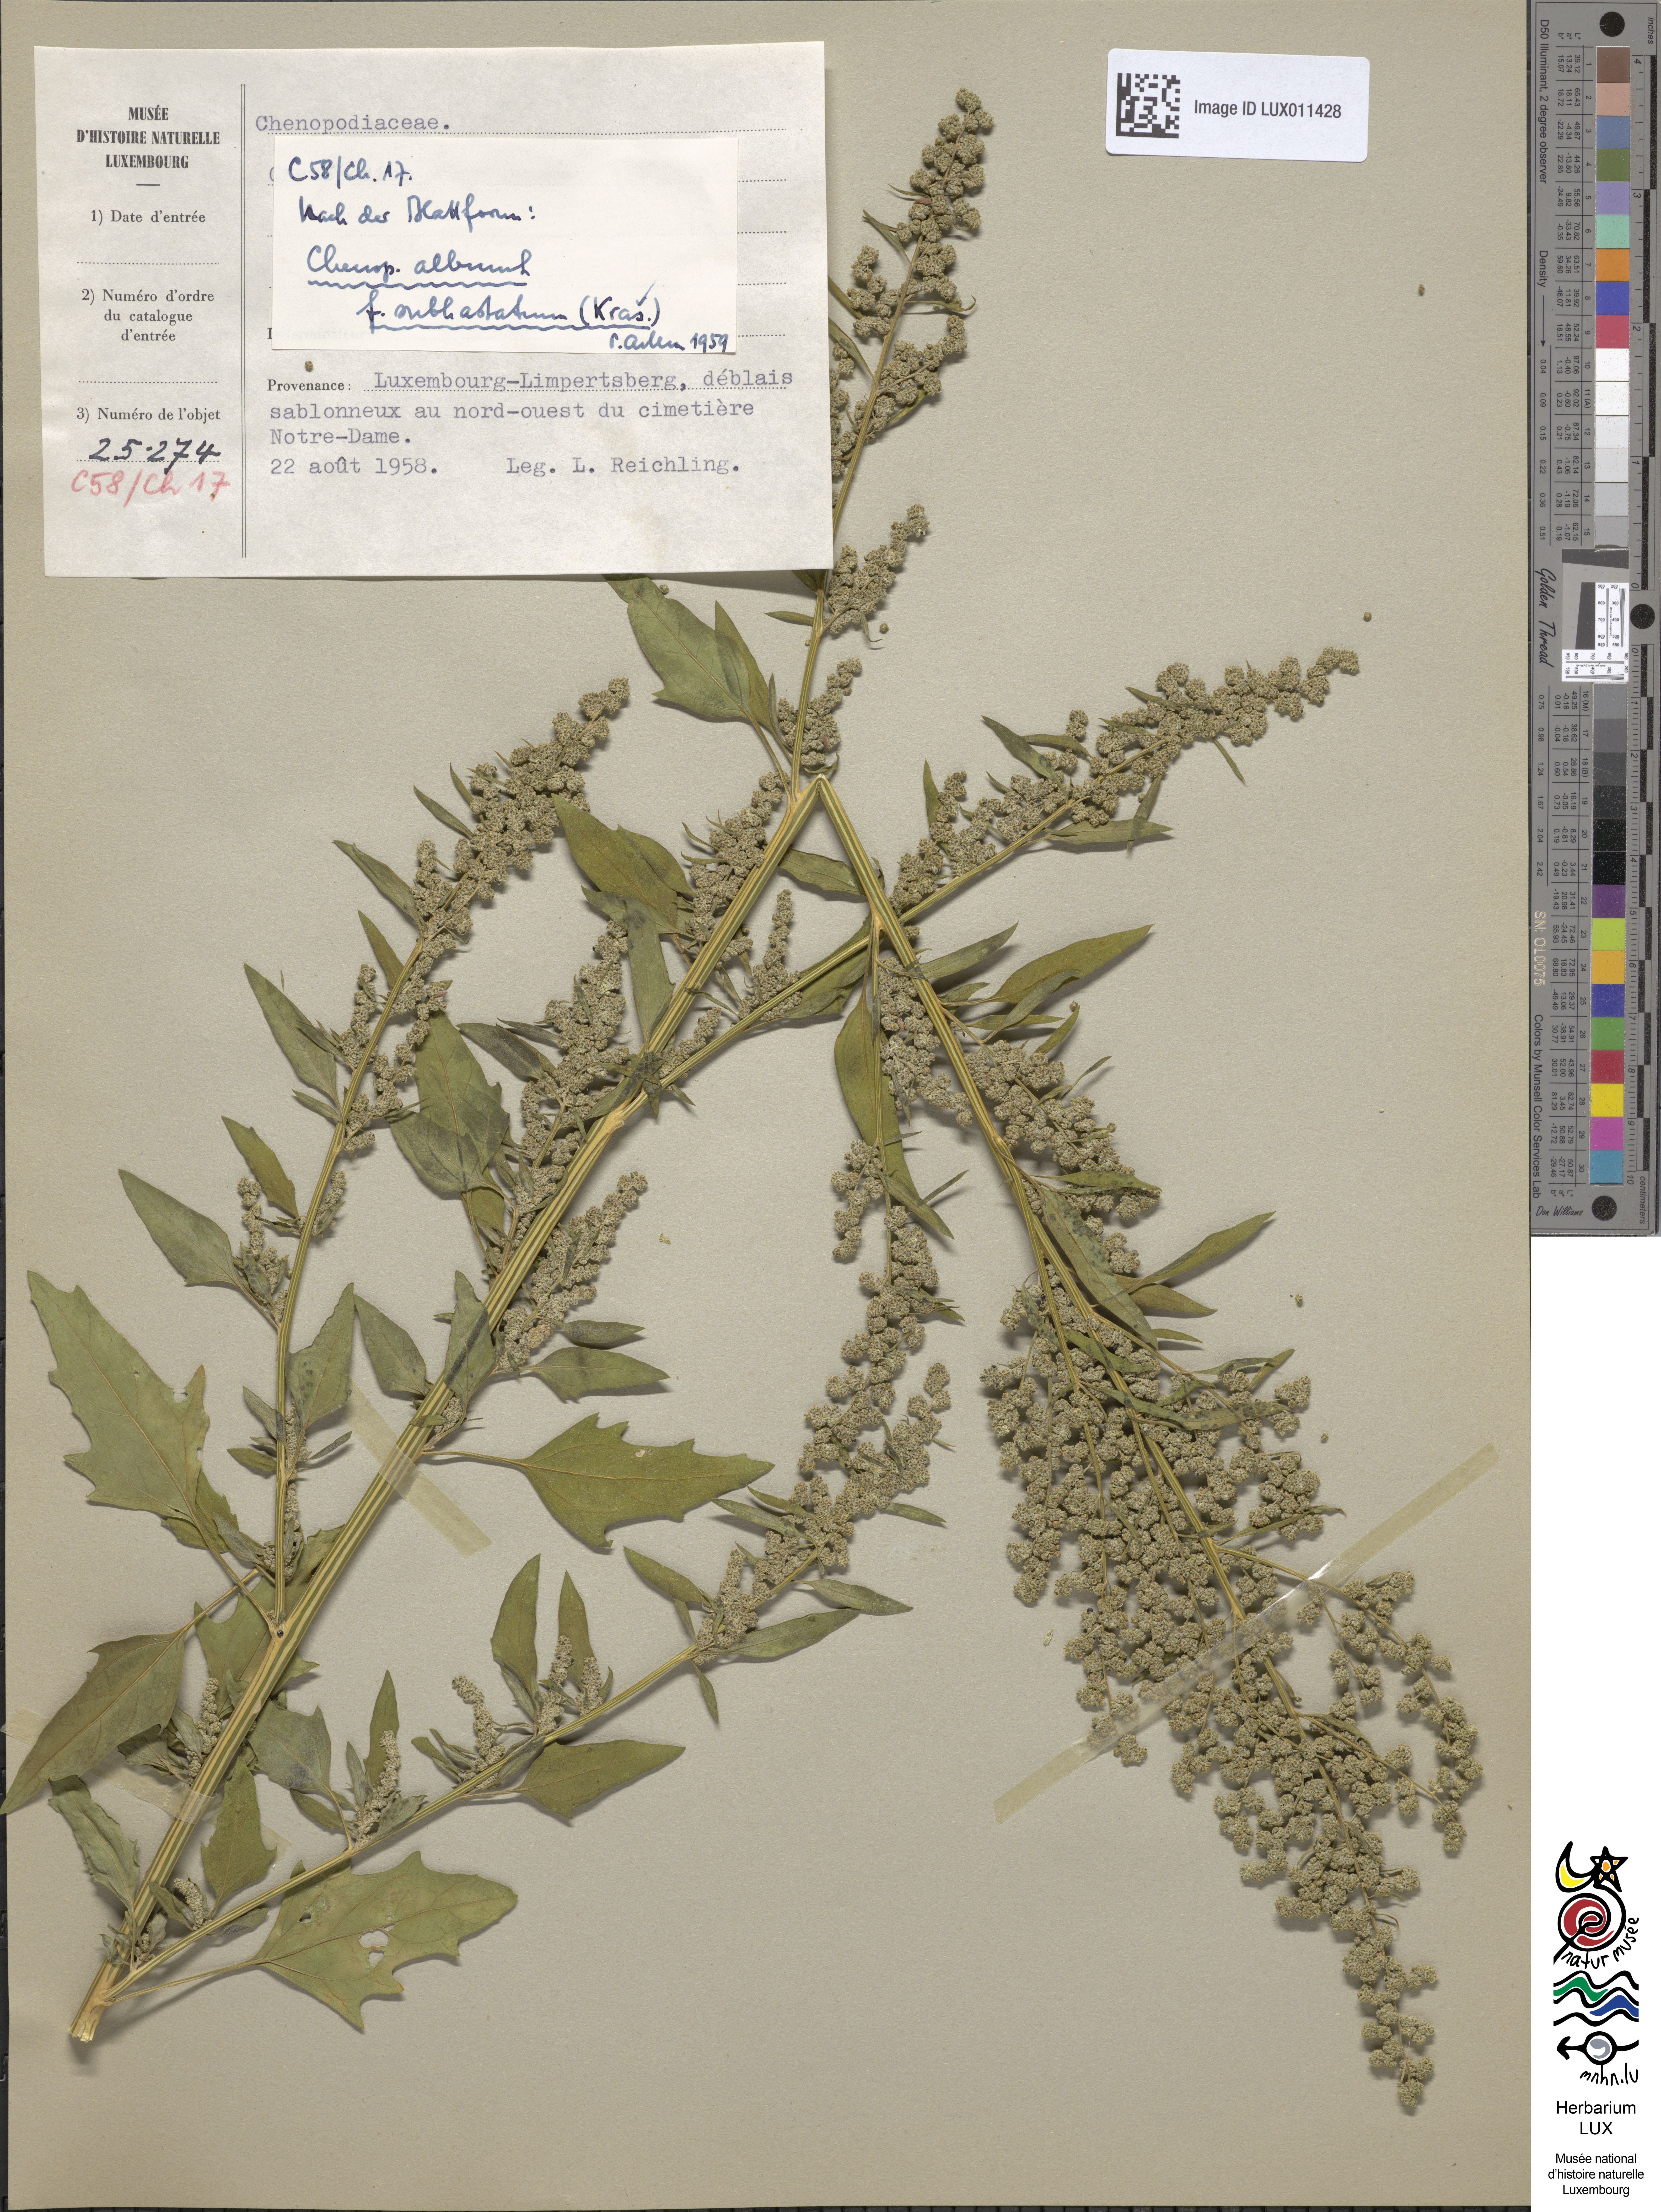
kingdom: Plantae
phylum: Tracheophyta
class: Magnoliopsida
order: Caryophyllales
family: Amaranthaceae
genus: Chenopodium
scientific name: Chenopodium album
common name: Fat-hen
